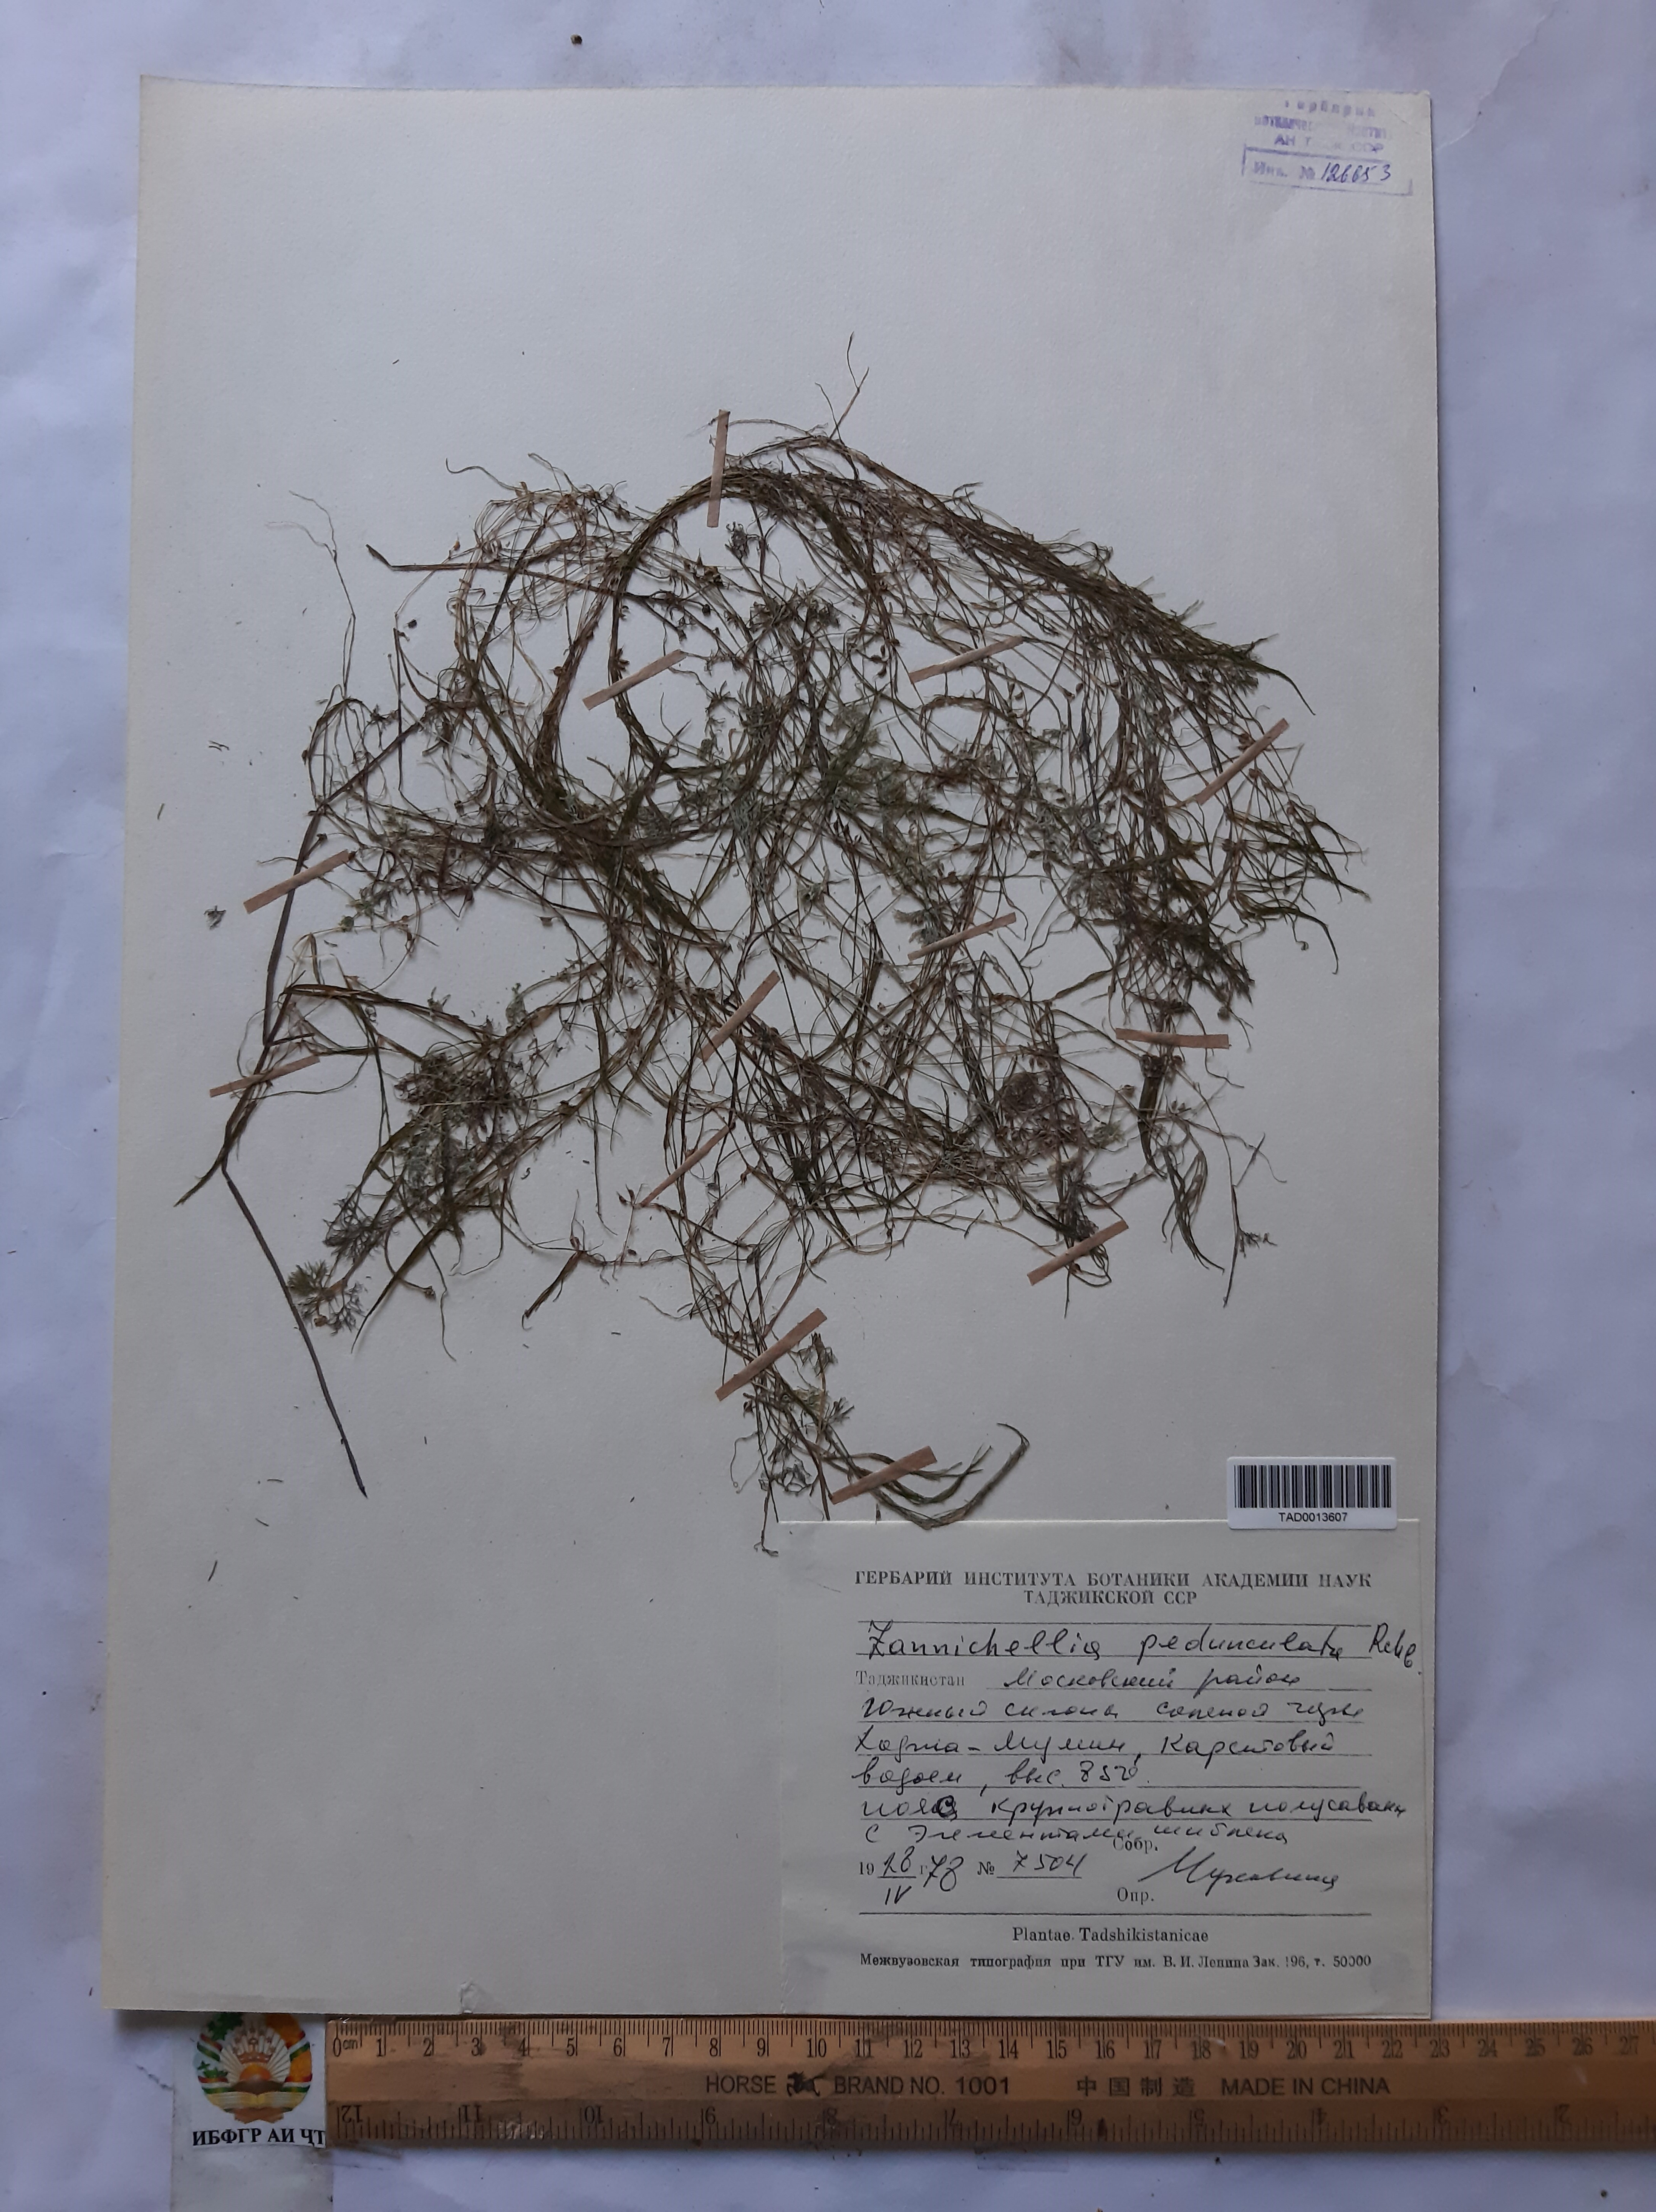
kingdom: Plantae
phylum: Tracheophyta
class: Liliopsida
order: Alismatales
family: Potamogetonaceae
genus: Zannichellia
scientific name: Zannichellia palustris
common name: Horned pondweed
